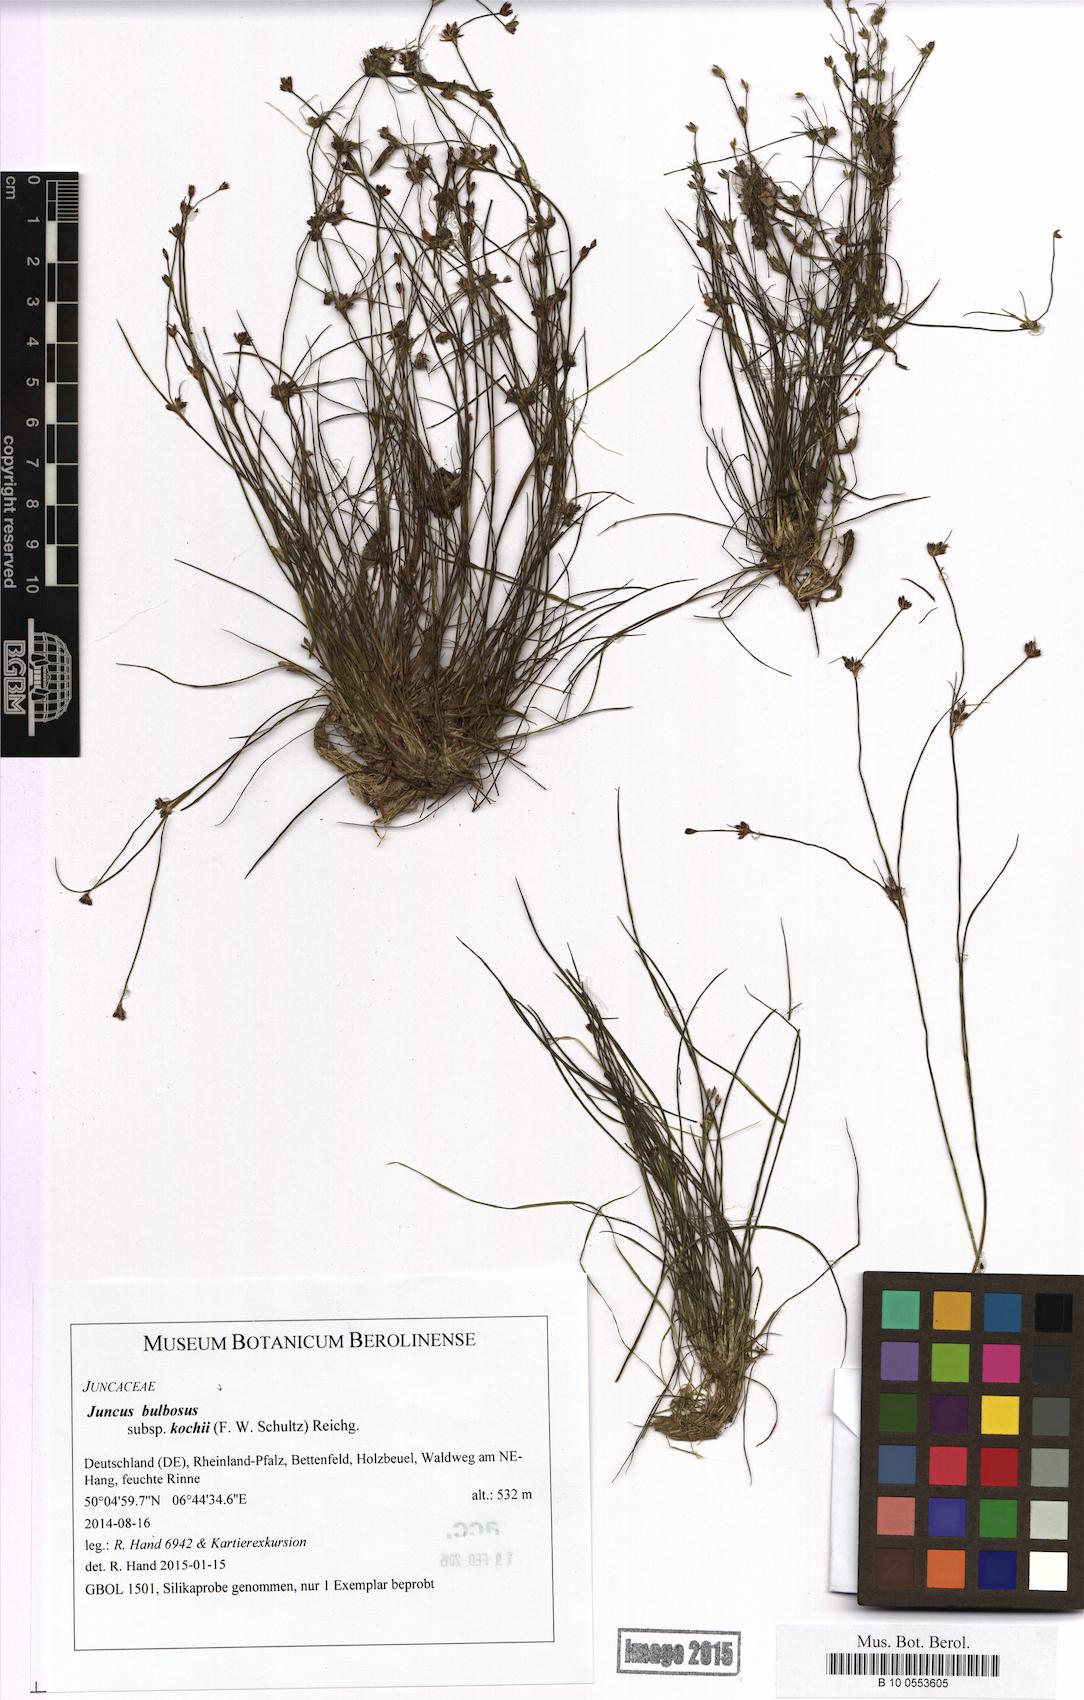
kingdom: Plantae
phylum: Tracheophyta
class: Liliopsida
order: Poales
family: Juncaceae
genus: Juncus
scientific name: Juncus bulbosus
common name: Bulbous rush
